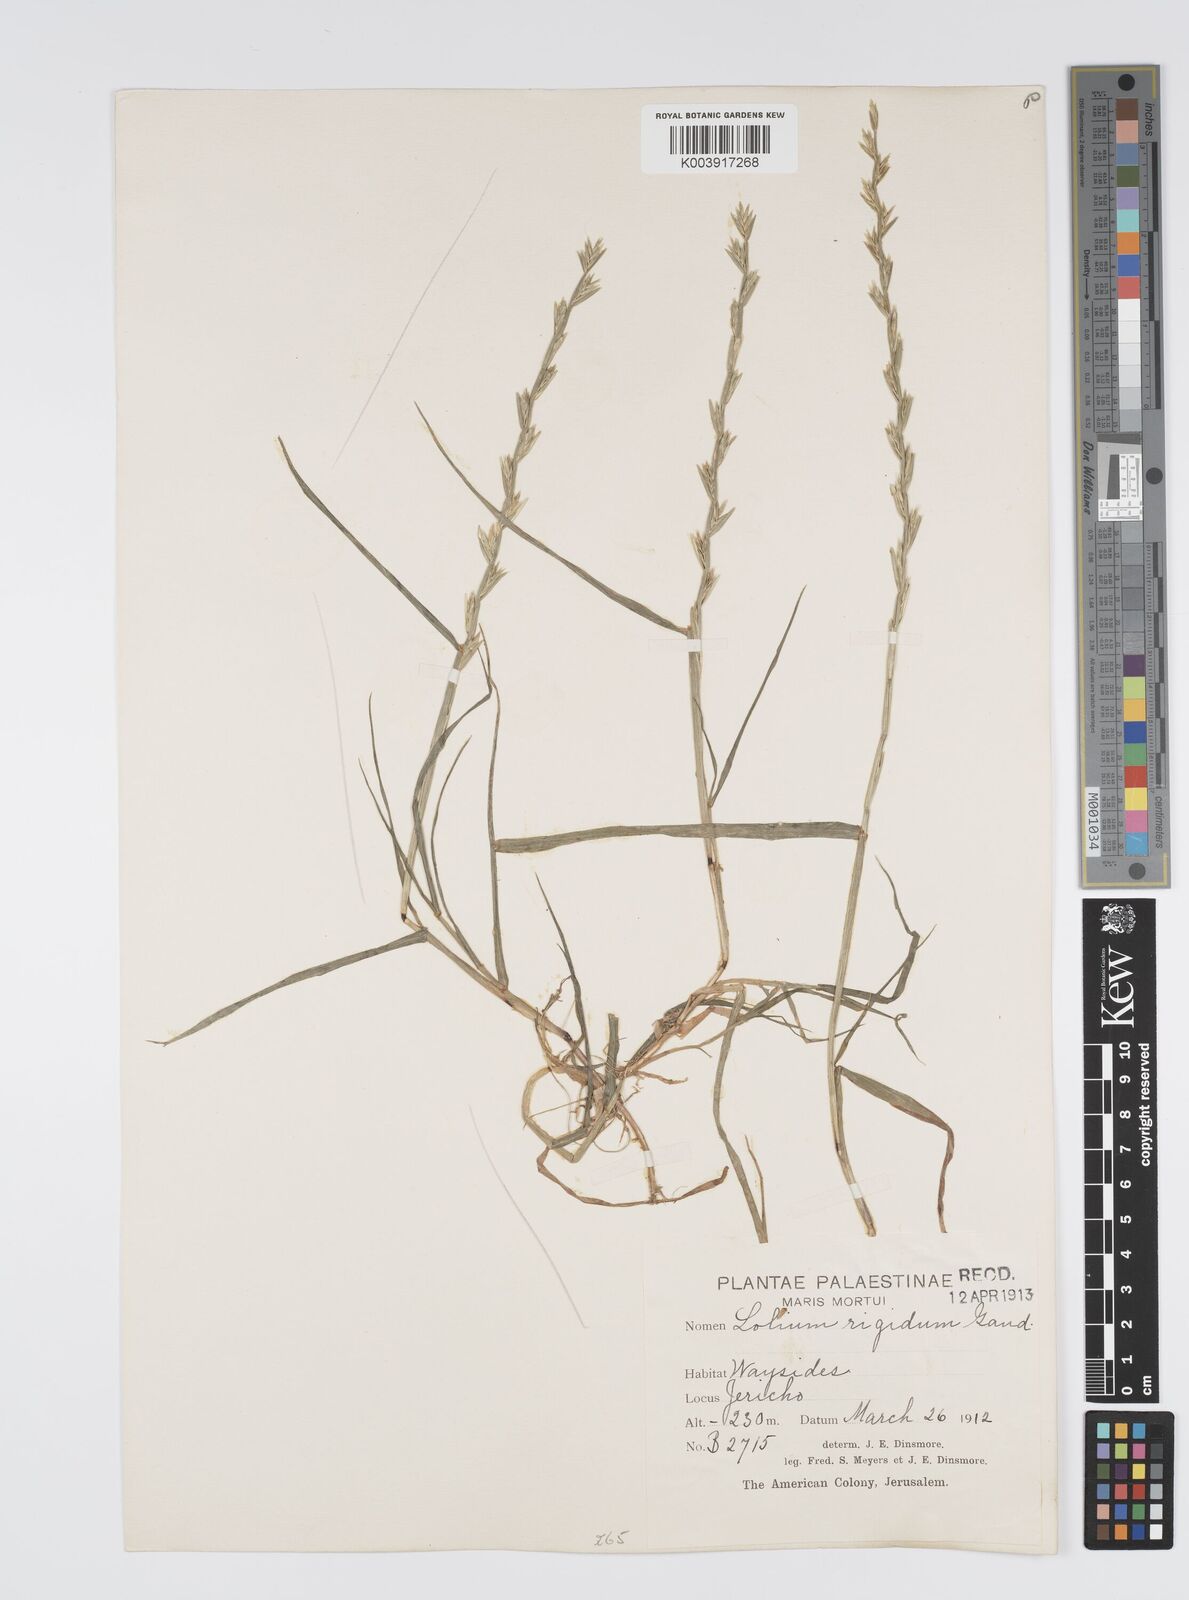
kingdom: Plantae
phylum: Tracheophyta
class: Liliopsida
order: Poales
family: Poaceae
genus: Lolium
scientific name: Lolium rigidum
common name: Wimmera ryegrass
